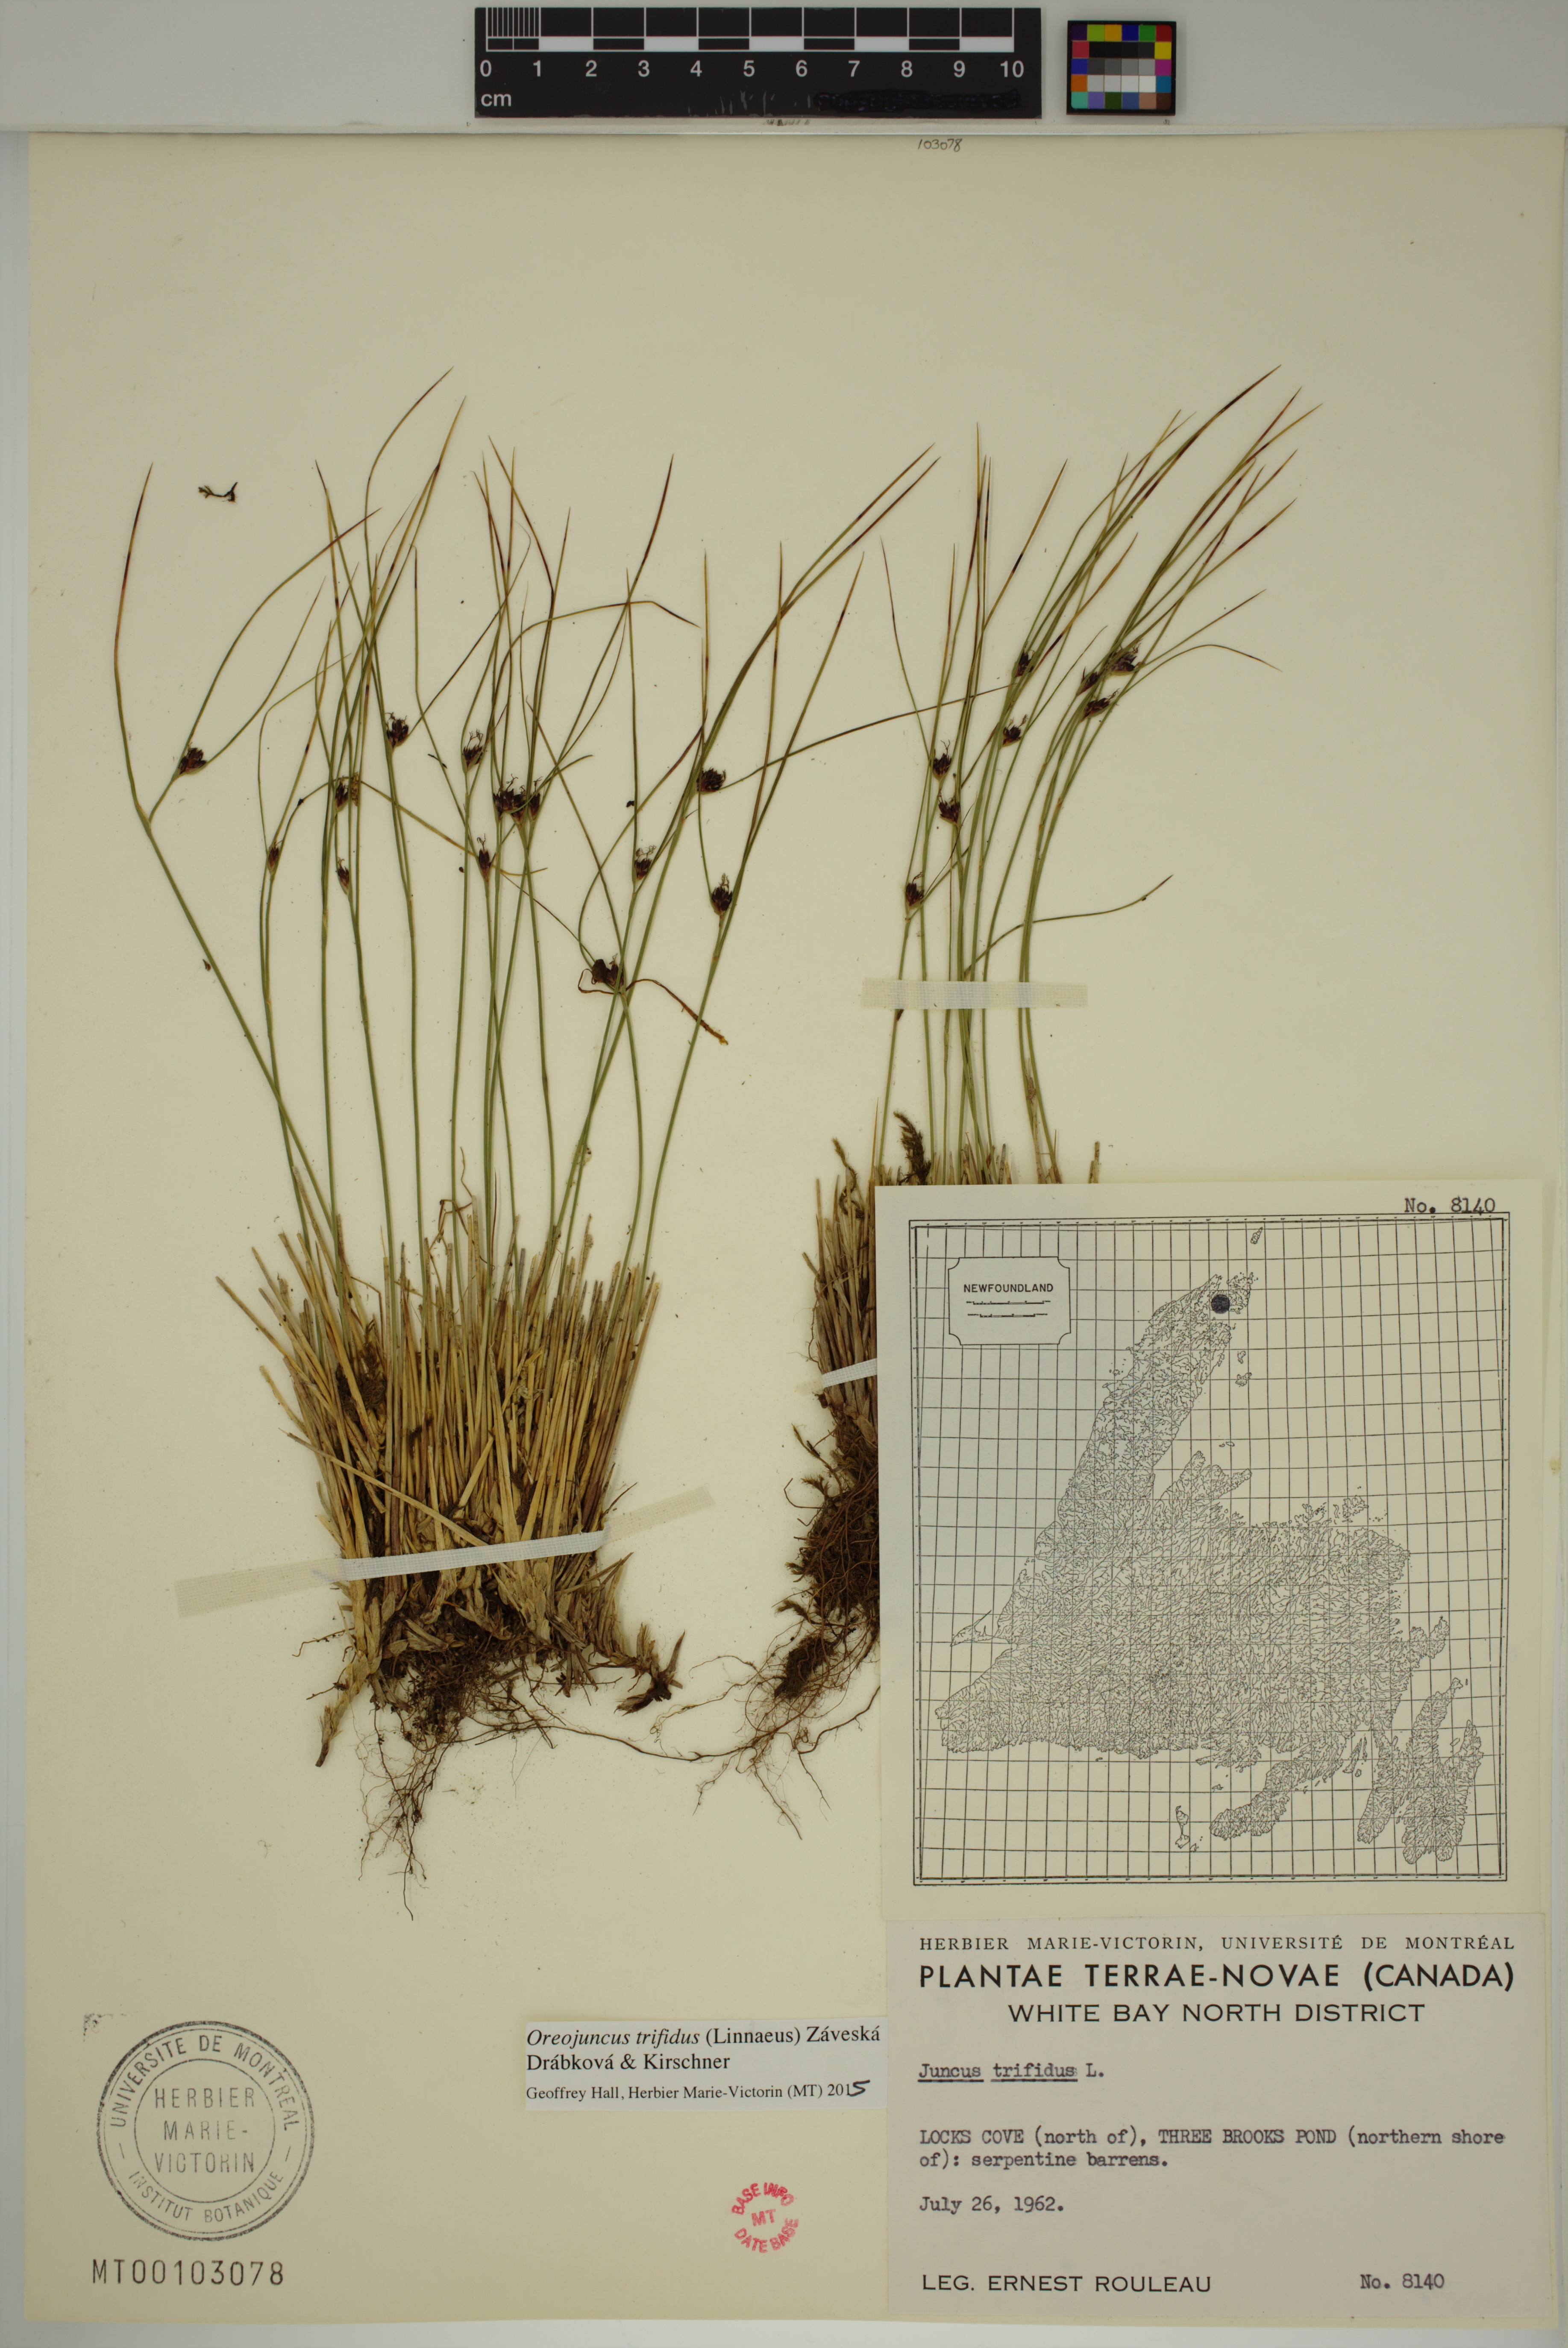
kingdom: Plantae
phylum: Tracheophyta
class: Liliopsida
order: Poales
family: Juncaceae
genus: Oreojuncus
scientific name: Oreojuncus trifidus
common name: Highland rush
